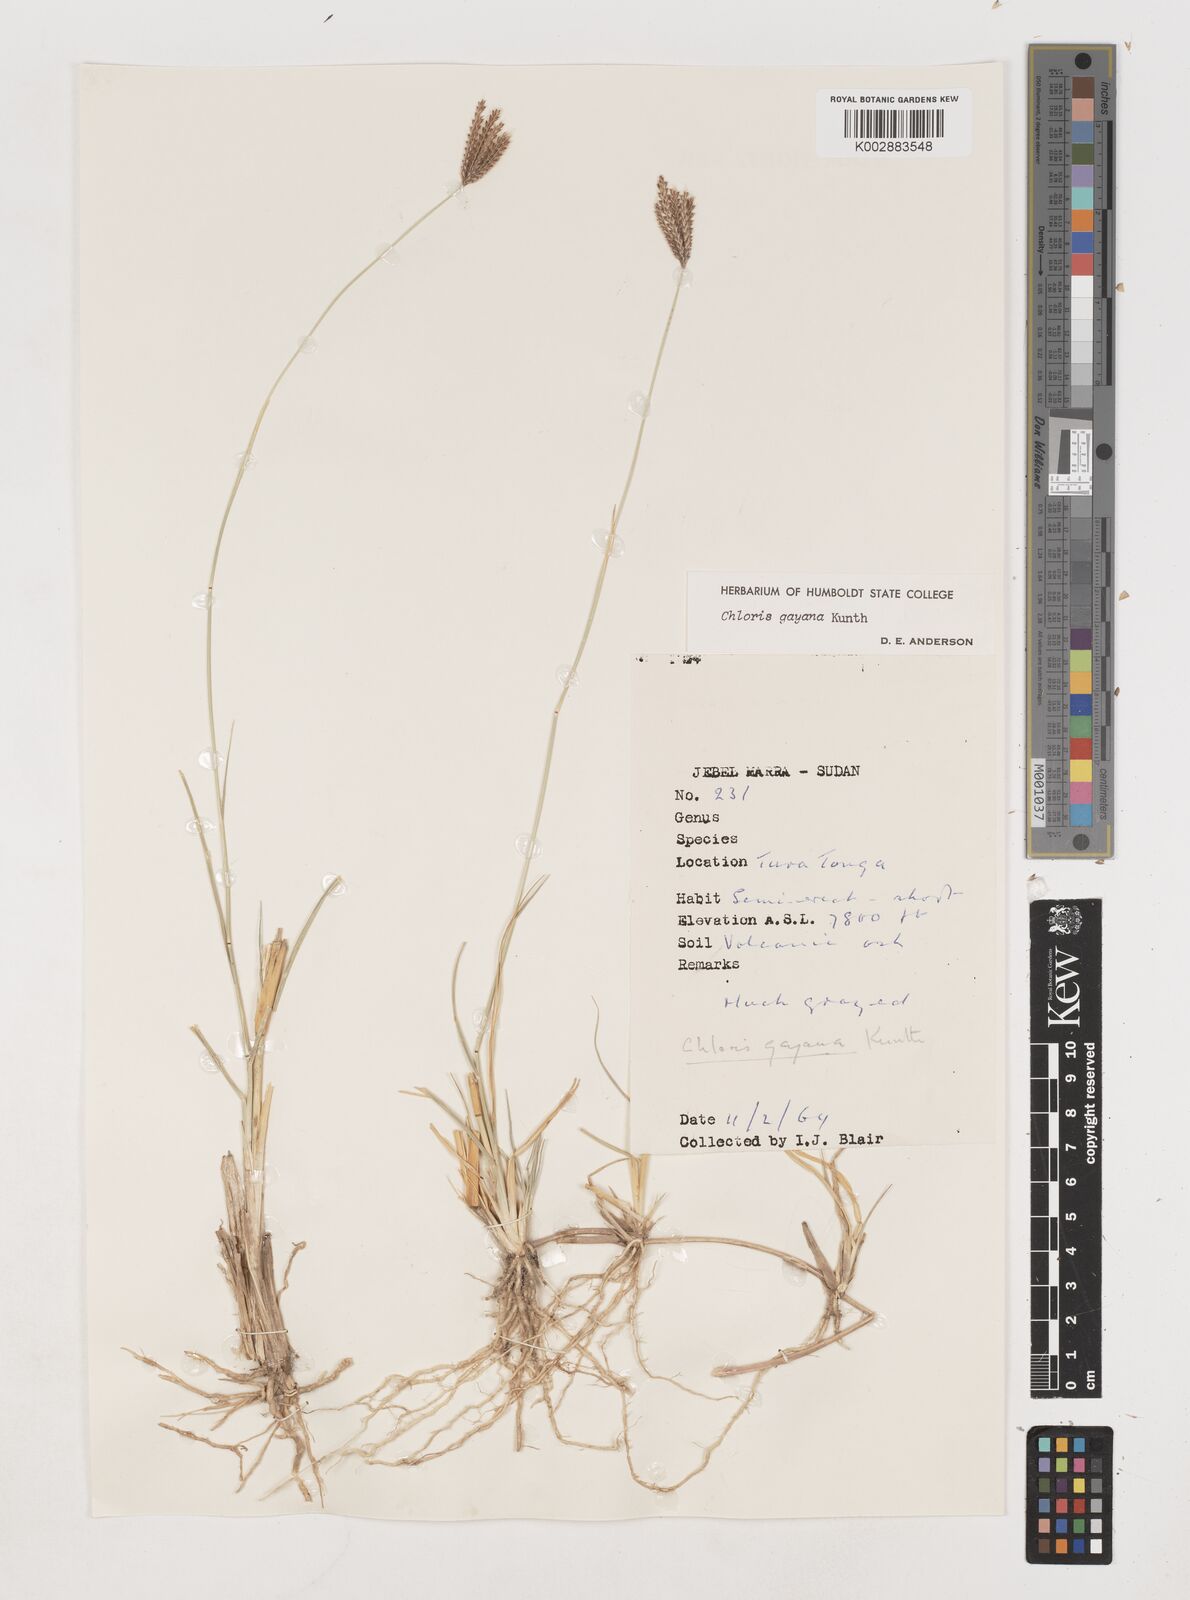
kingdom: Plantae
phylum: Tracheophyta
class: Liliopsida
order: Poales
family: Poaceae
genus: Chloris
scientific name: Chloris gayana
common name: Rhodes grass
